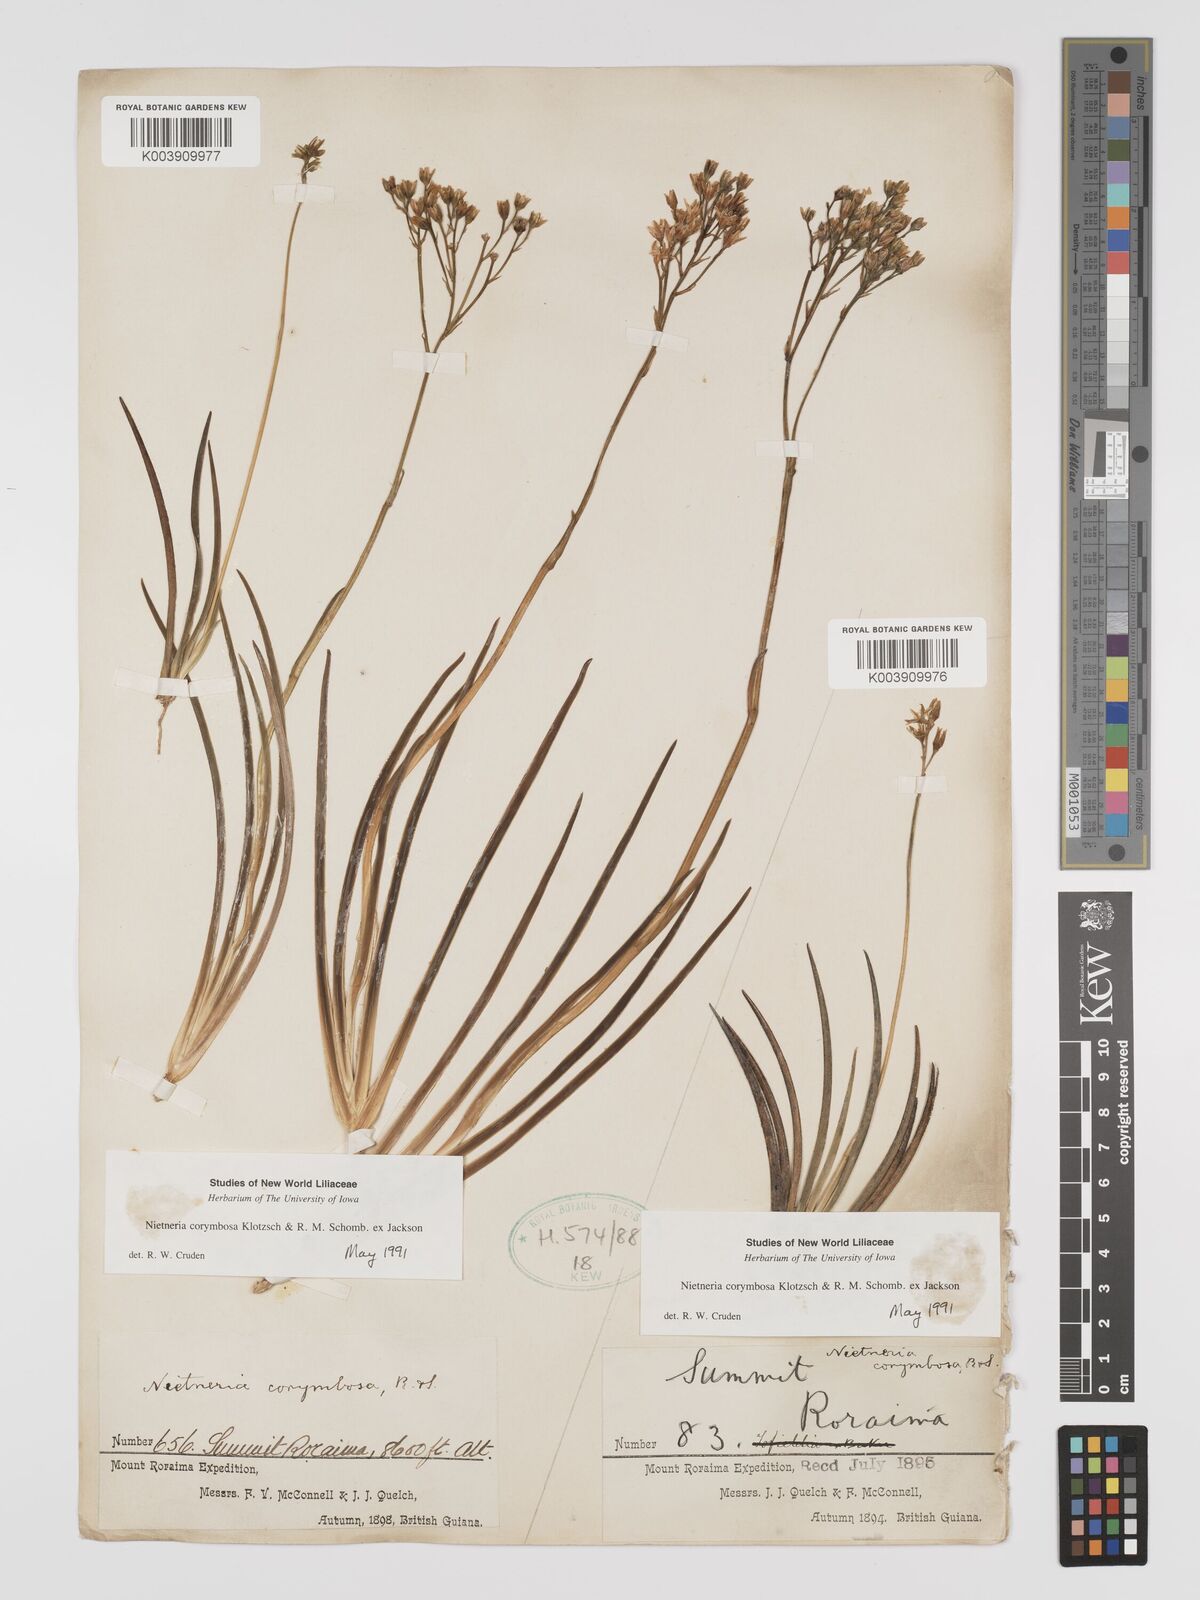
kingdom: Plantae
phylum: Tracheophyta
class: Liliopsida
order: Dioscoreales
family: Nartheciaceae
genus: Nietneria
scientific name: Nietneria corymbosa
